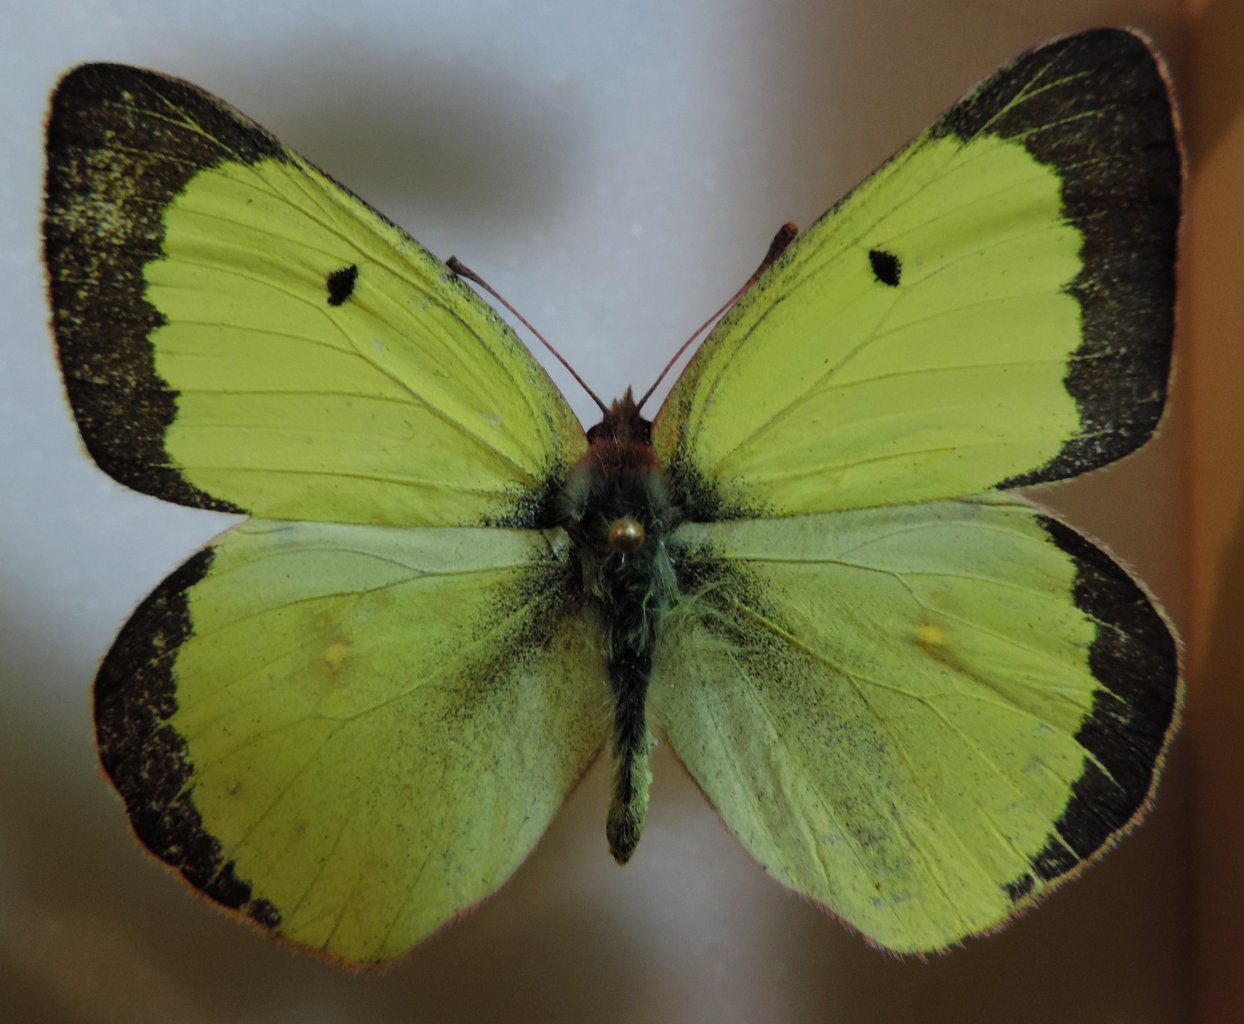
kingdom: Animalia
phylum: Arthropoda
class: Insecta
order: Lepidoptera
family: Pieridae
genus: Colias
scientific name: Colias philodice
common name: Clouded Sulphur
